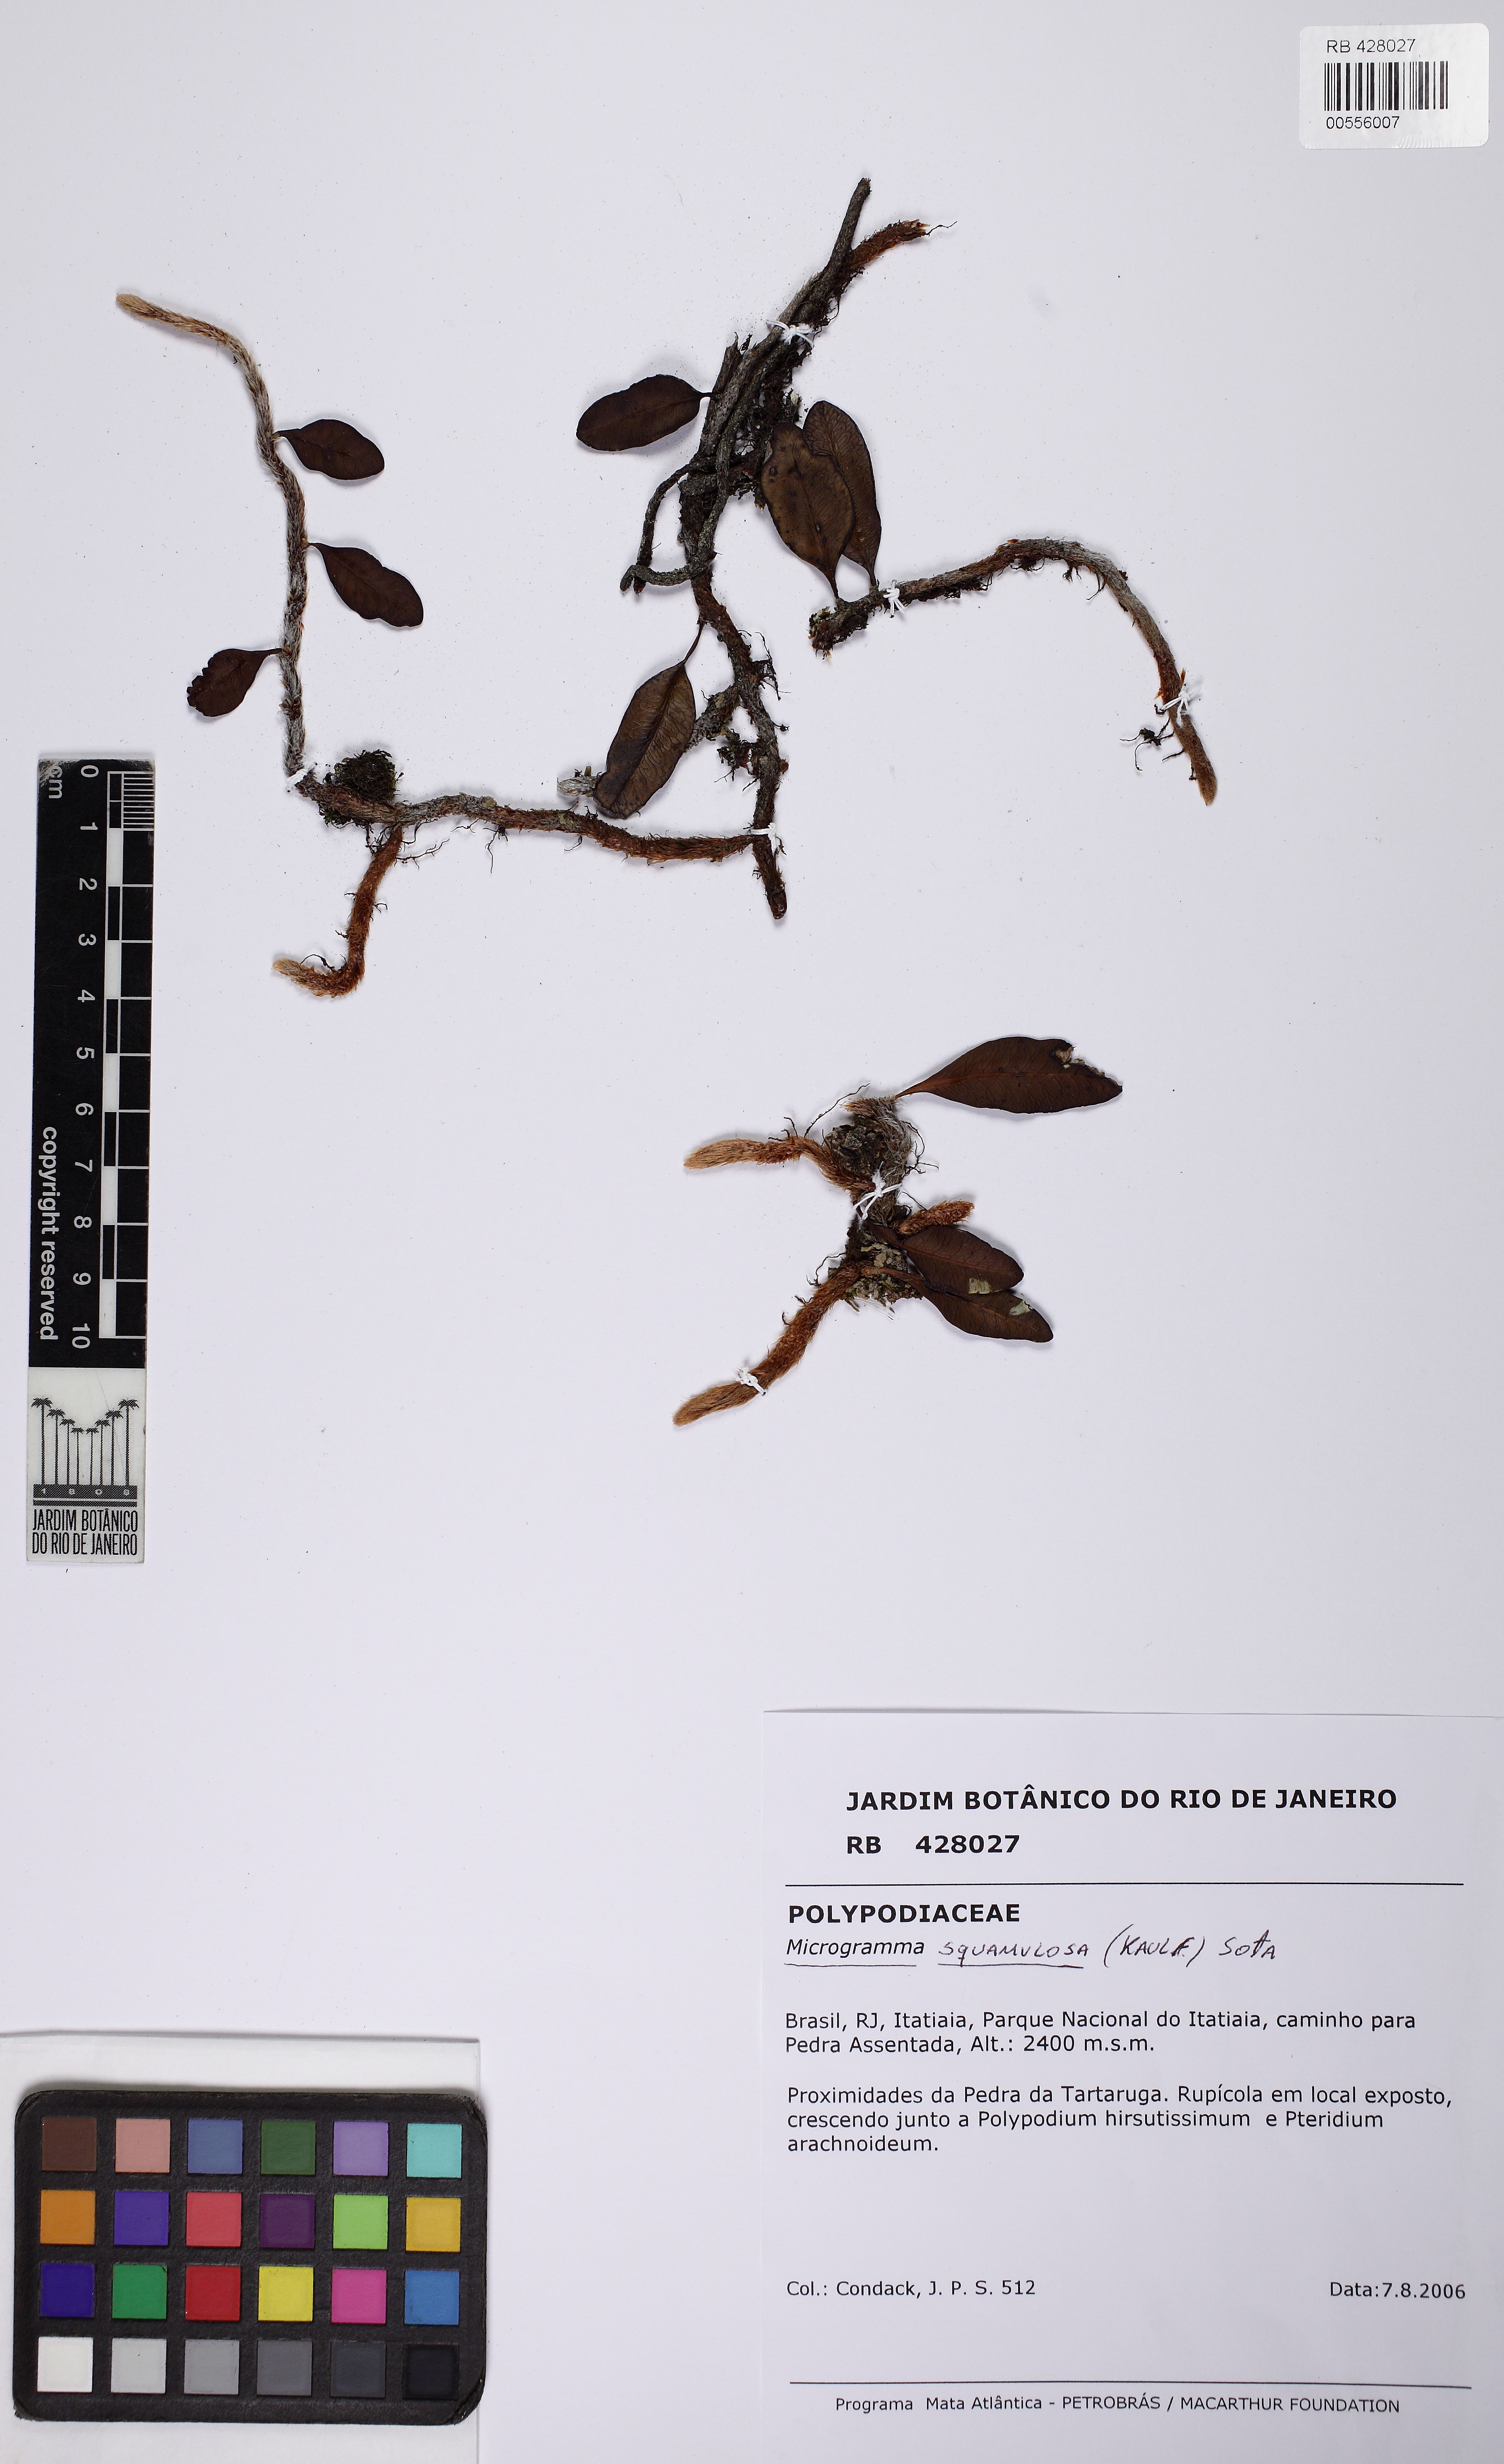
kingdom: Plantae
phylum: Tracheophyta
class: Polypodiopsida
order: Polypodiales
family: Polypodiaceae
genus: Microgramma
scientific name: Microgramma squamulosa
